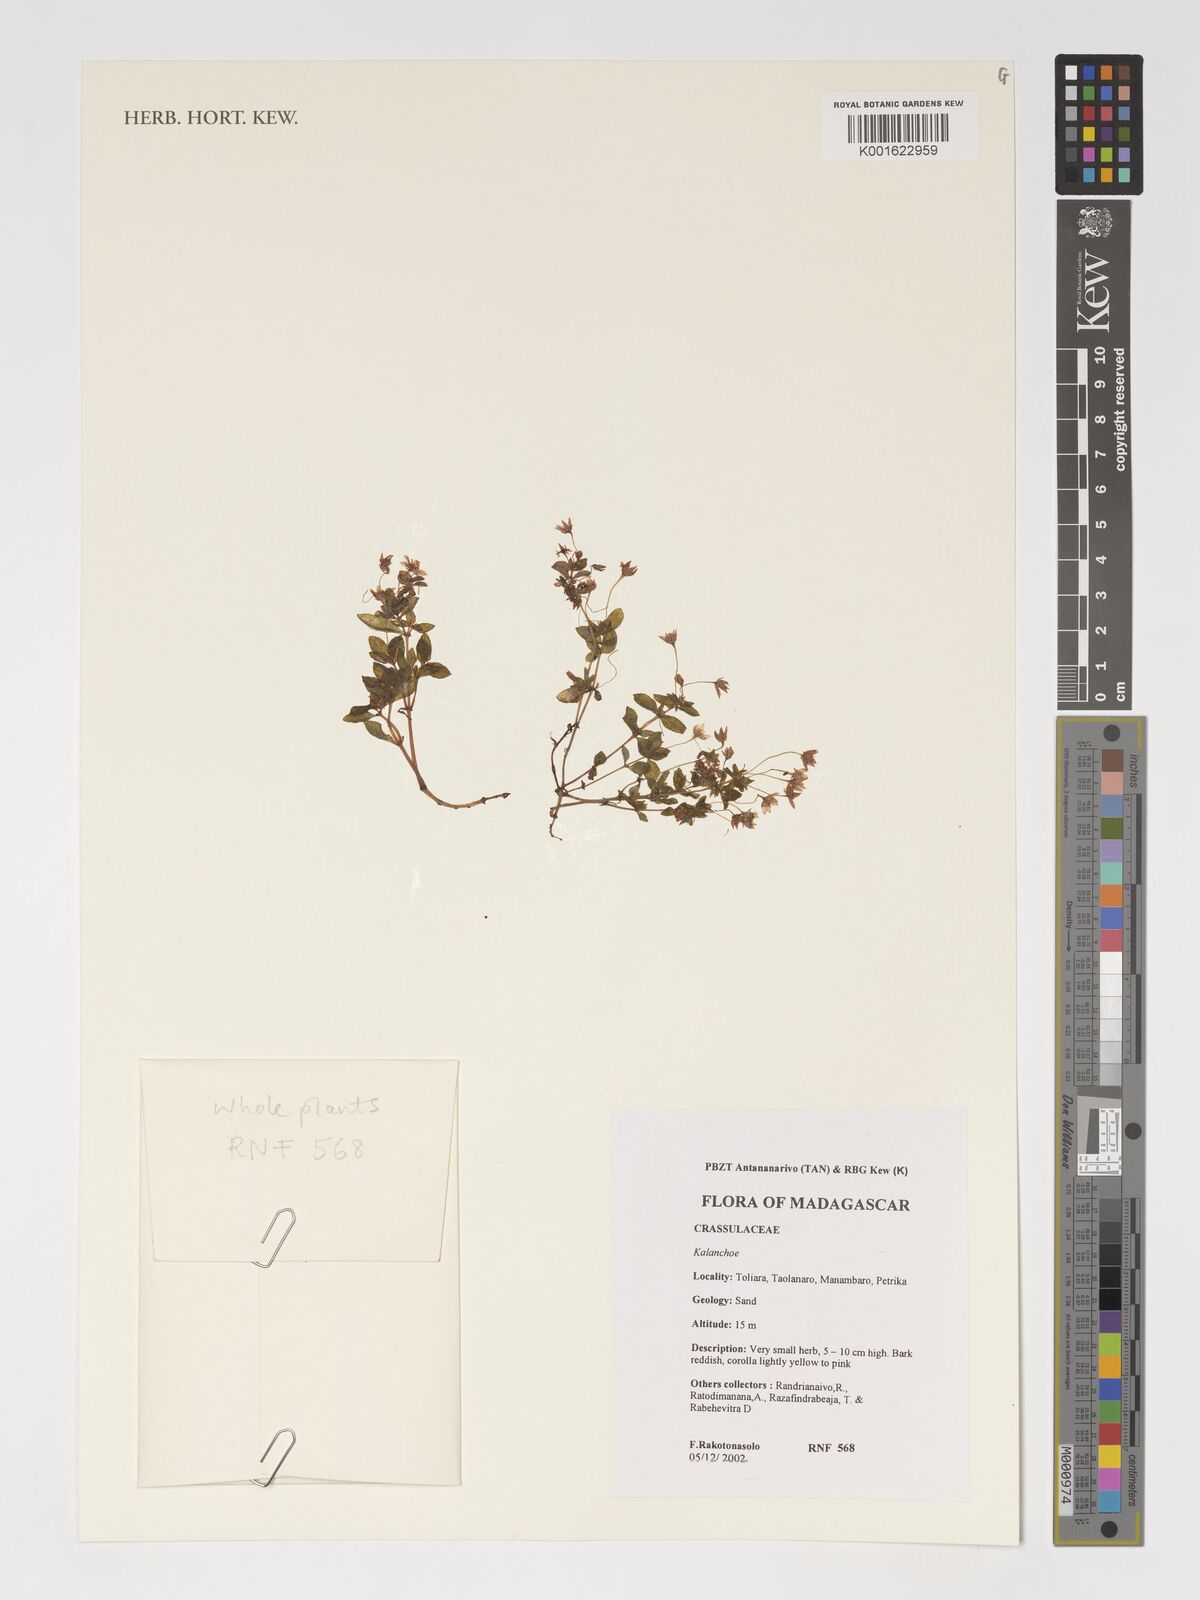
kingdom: Plantae
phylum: Tracheophyta
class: Magnoliopsida
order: Saxifragales
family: Crassulaceae
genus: Kalanchoe
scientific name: Kalanchoe
